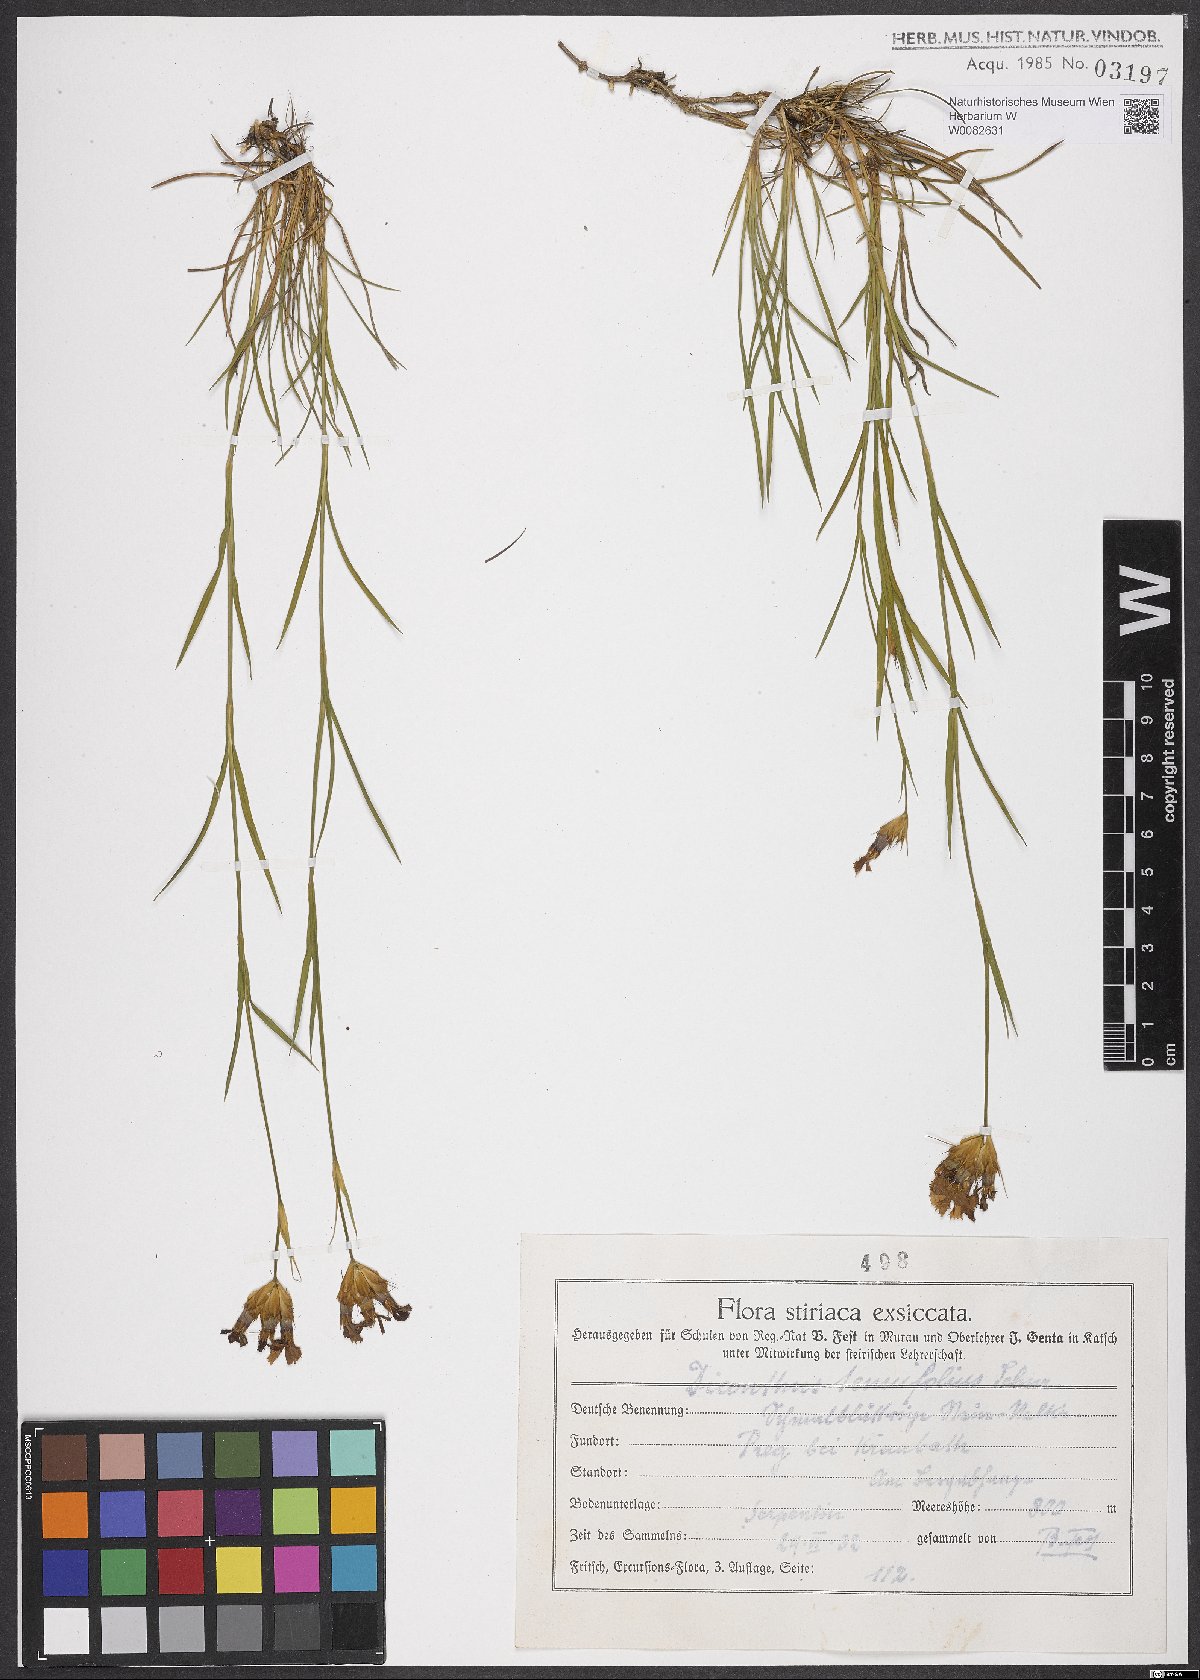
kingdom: Plantae
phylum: Tracheophyta
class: Magnoliopsida
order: Caryophyllales
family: Caryophyllaceae
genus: Dianthus
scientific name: Dianthus carthusianorum
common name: Carthusian pink
